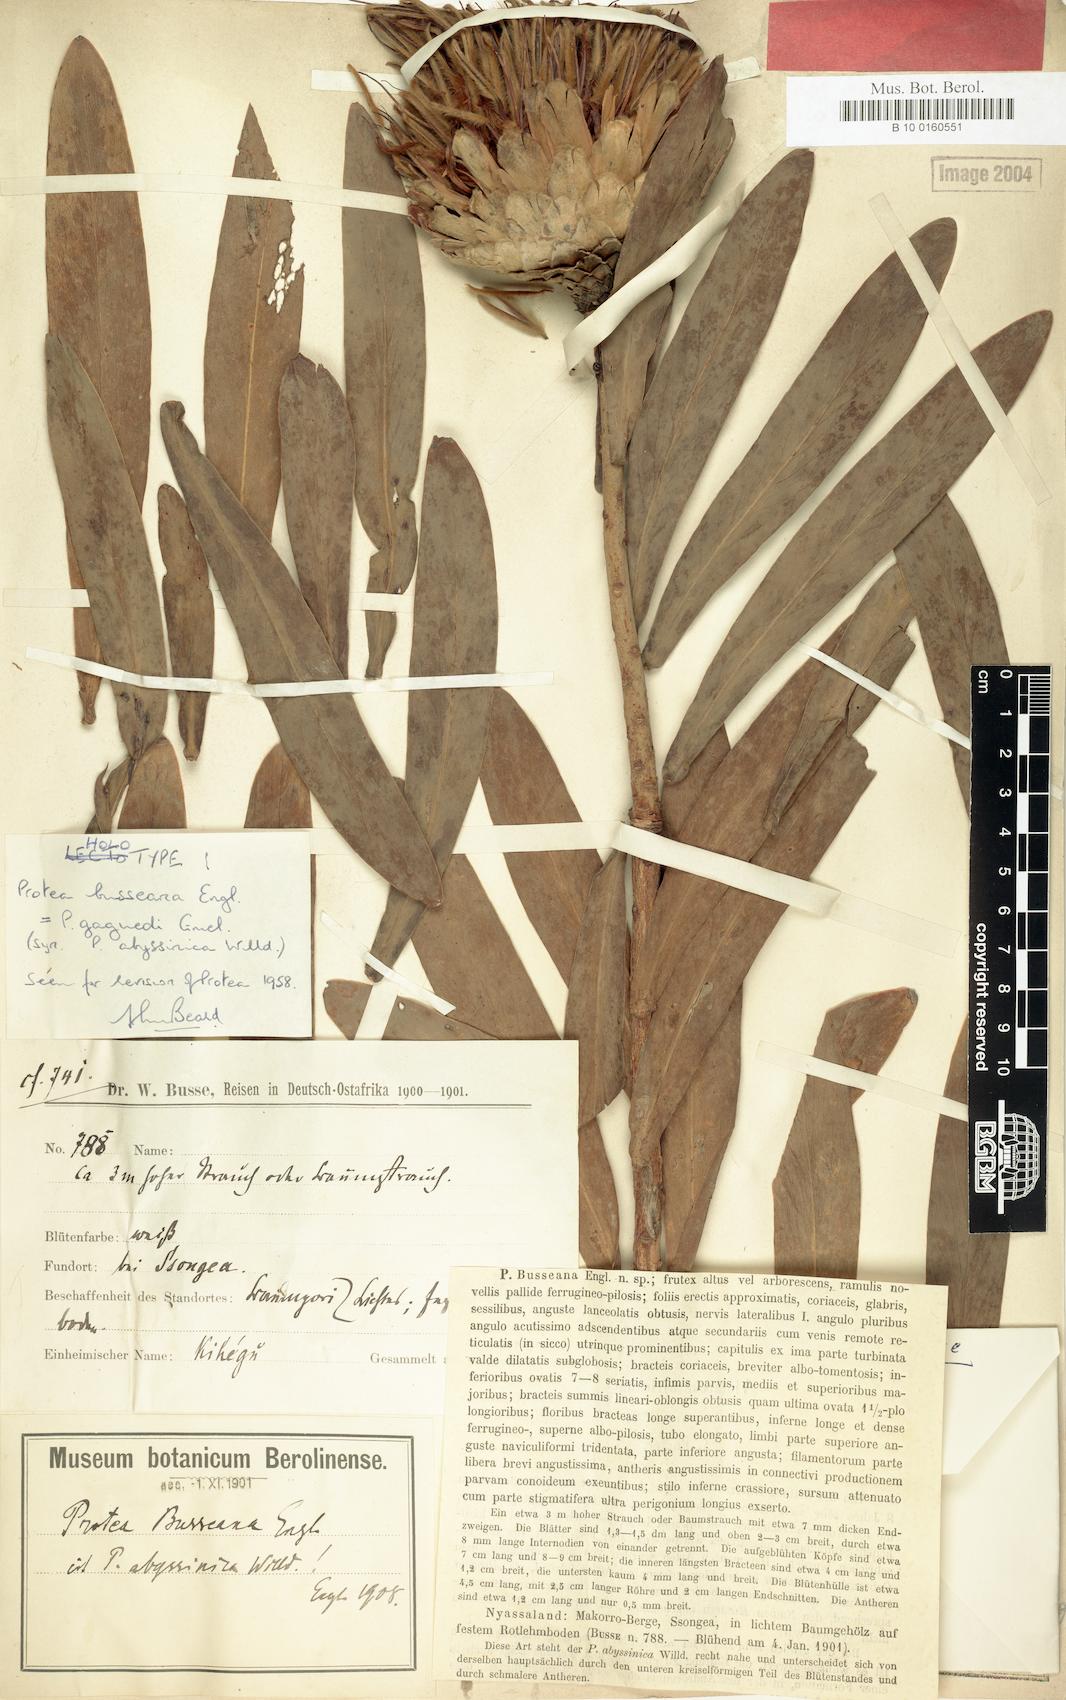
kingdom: Plantae
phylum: Tracheophyta
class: Magnoliopsida
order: Proteales
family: Proteaceae
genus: Protea
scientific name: Protea gaguedi
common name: African protea
